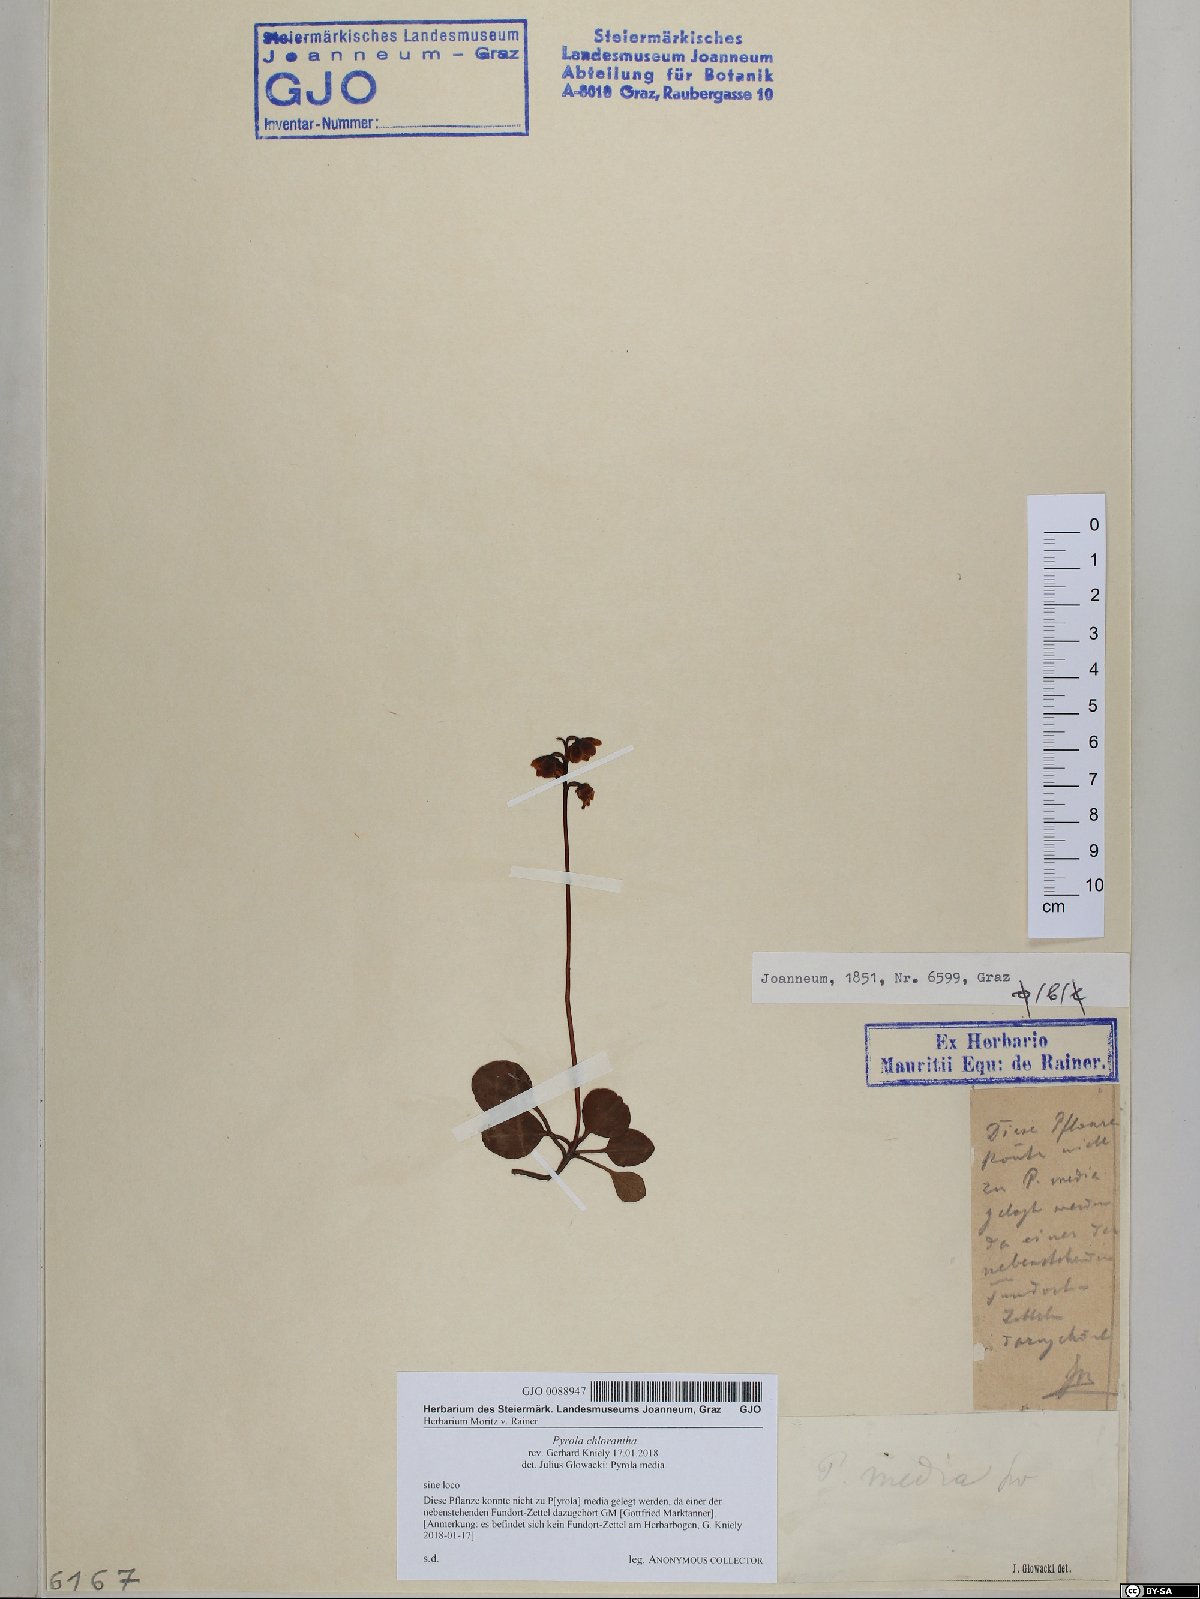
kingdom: Plantae
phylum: Tracheophyta
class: Magnoliopsida
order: Ericales
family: Ericaceae
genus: Pyrola
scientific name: Pyrola chlorantha
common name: Green wintergreen
